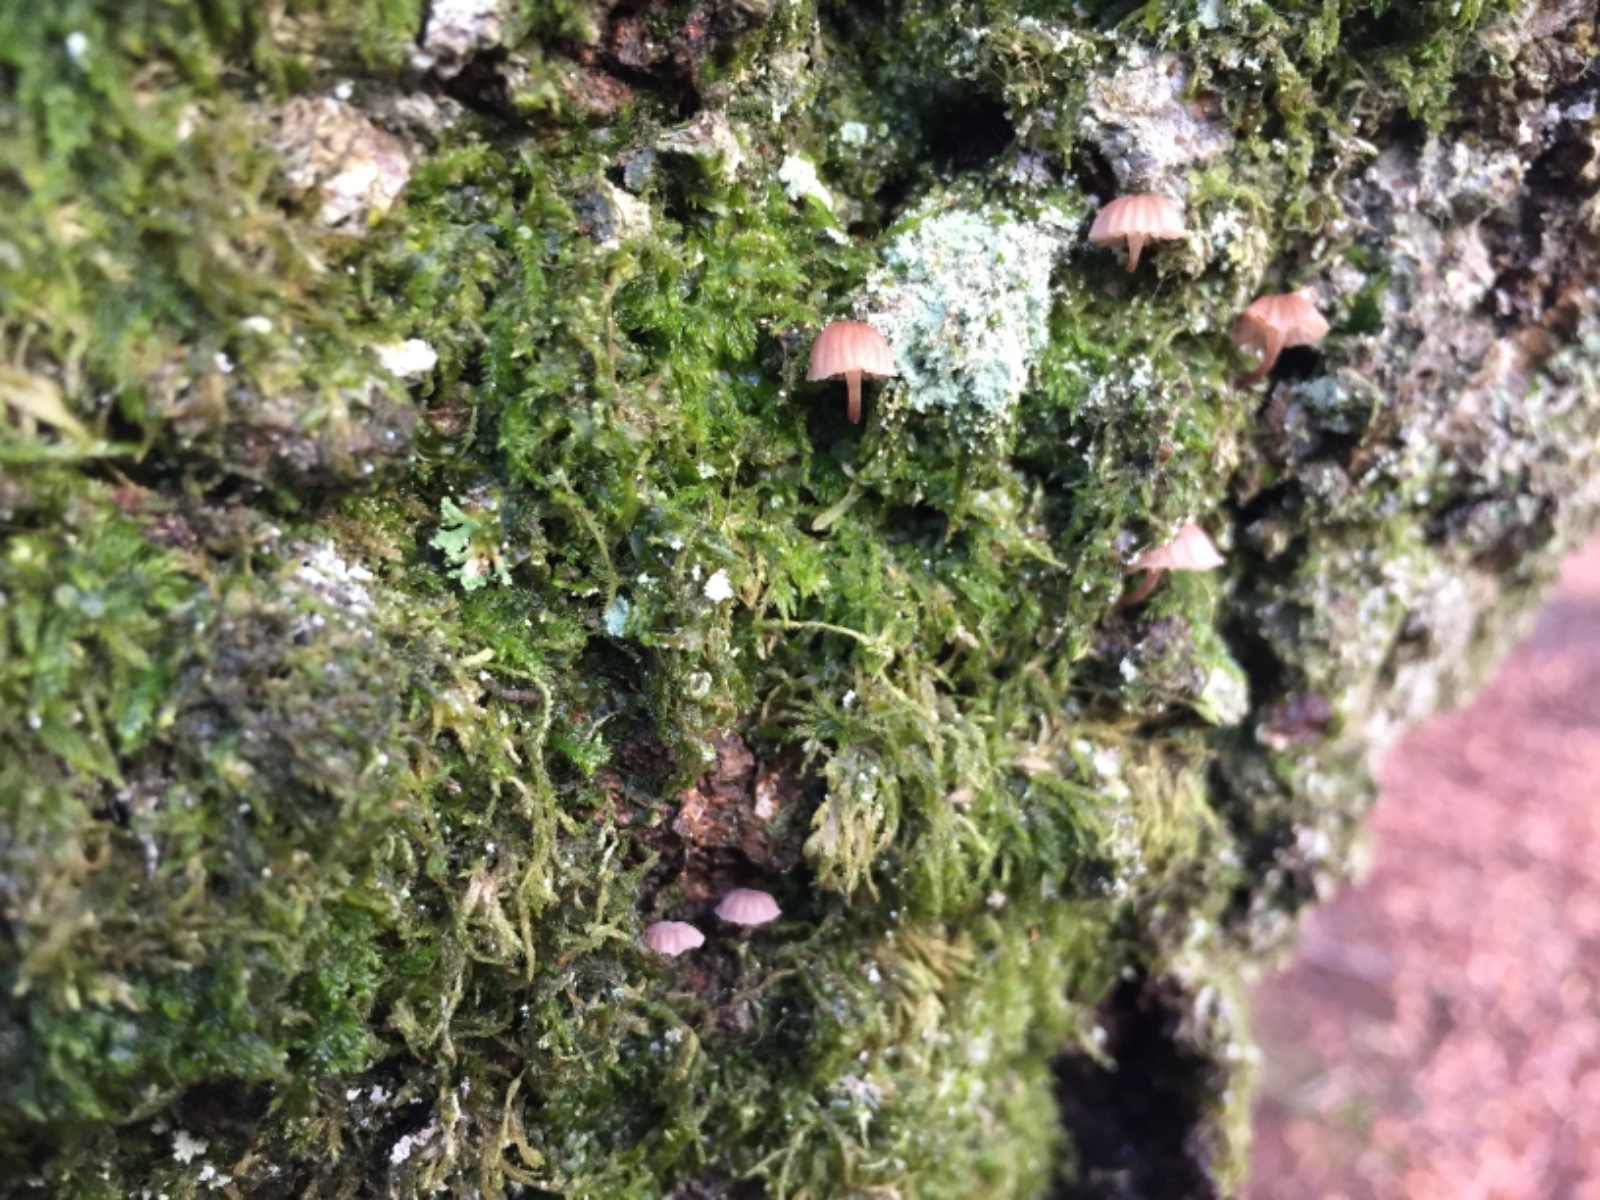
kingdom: Fungi
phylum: Basidiomycota
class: Agaricomycetes
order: Agaricales
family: Mycenaceae
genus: Mycena
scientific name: Mycena meliigena
